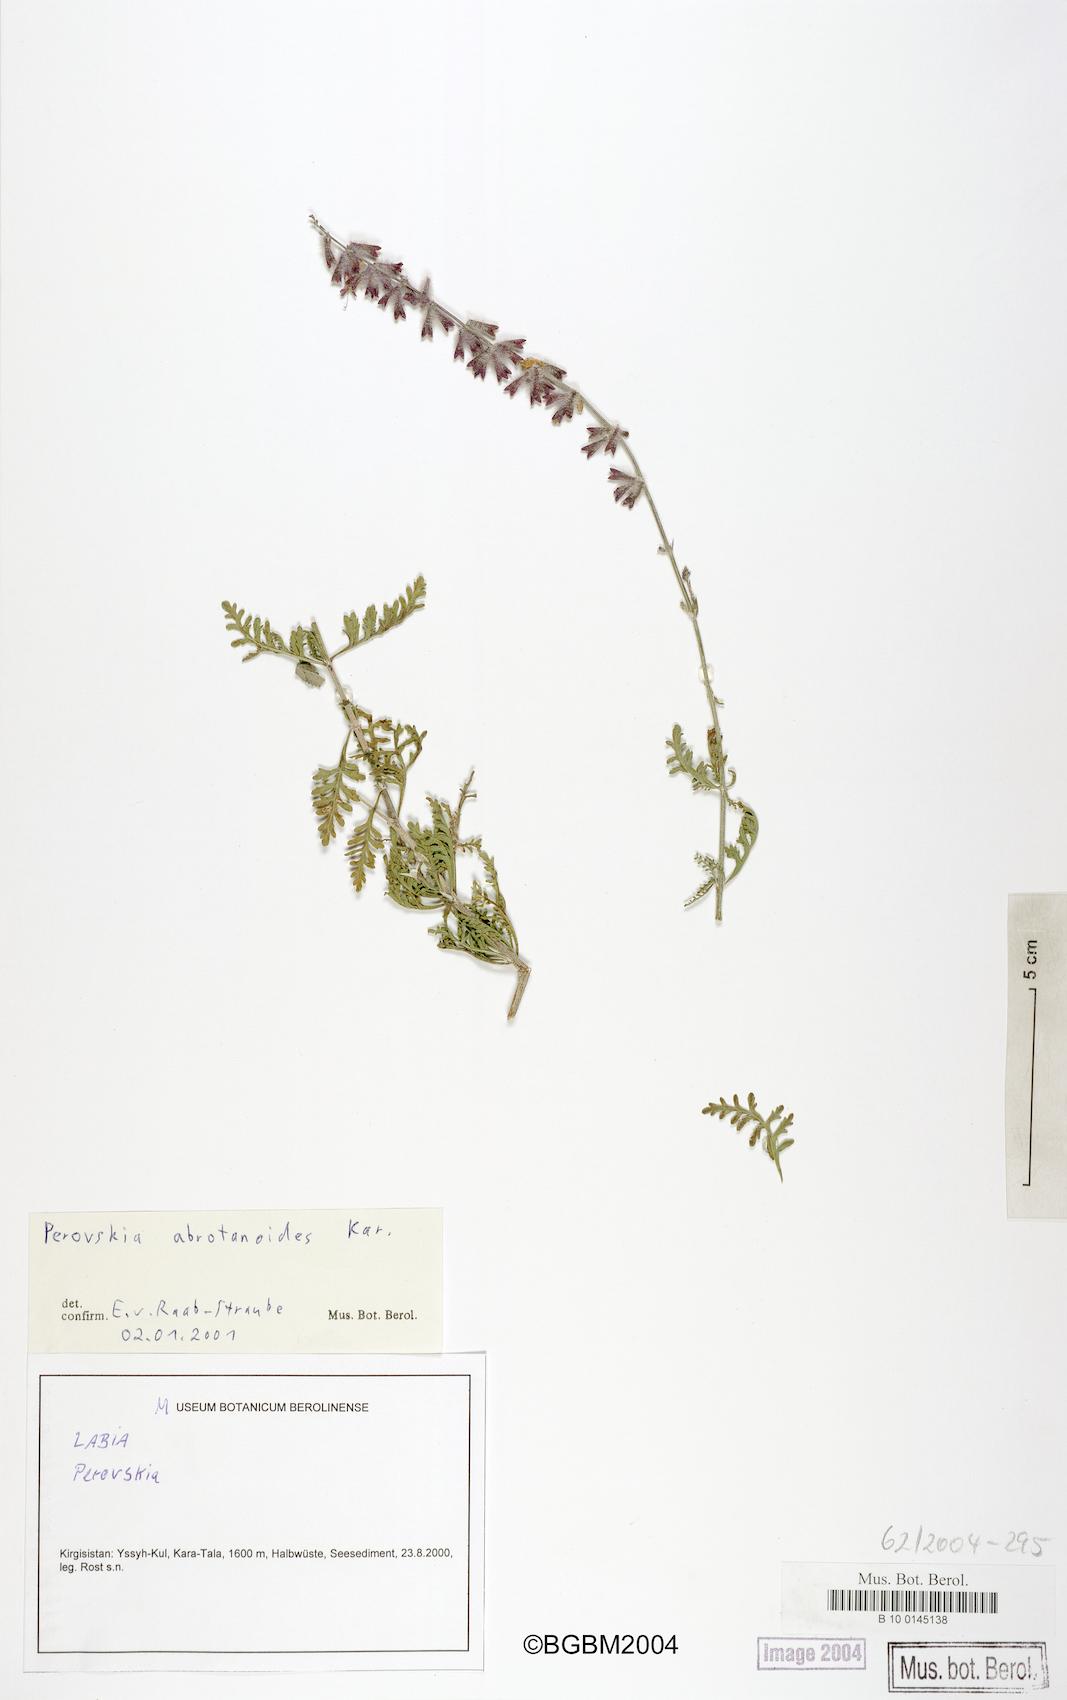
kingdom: Plantae
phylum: Tracheophyta
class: Magnoliopsida
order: Lamiales
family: Lamiaceae
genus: Salvia
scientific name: Salvia abrotanoides
